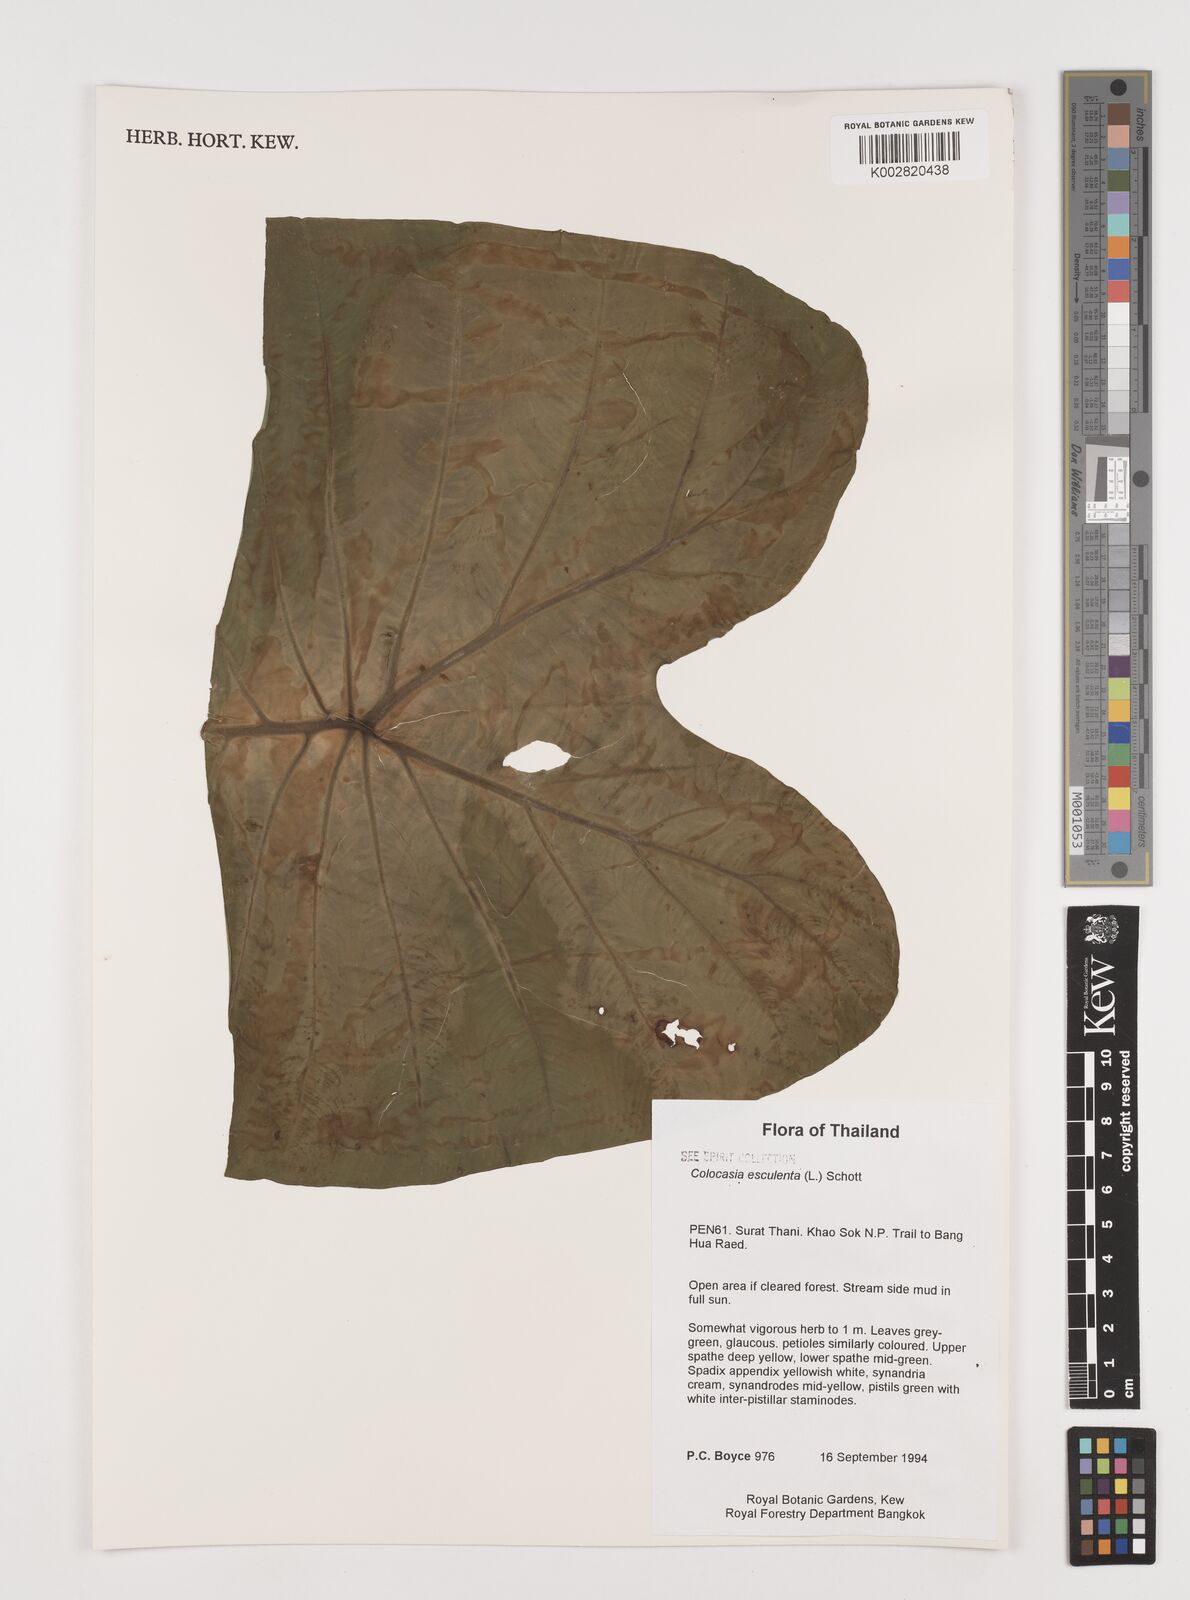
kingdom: Plantae
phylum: Tracheophyta
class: Liliopsida
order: Alismatales
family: Araceae
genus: Colocasia
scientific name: Colocasia esculenta
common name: Taro
